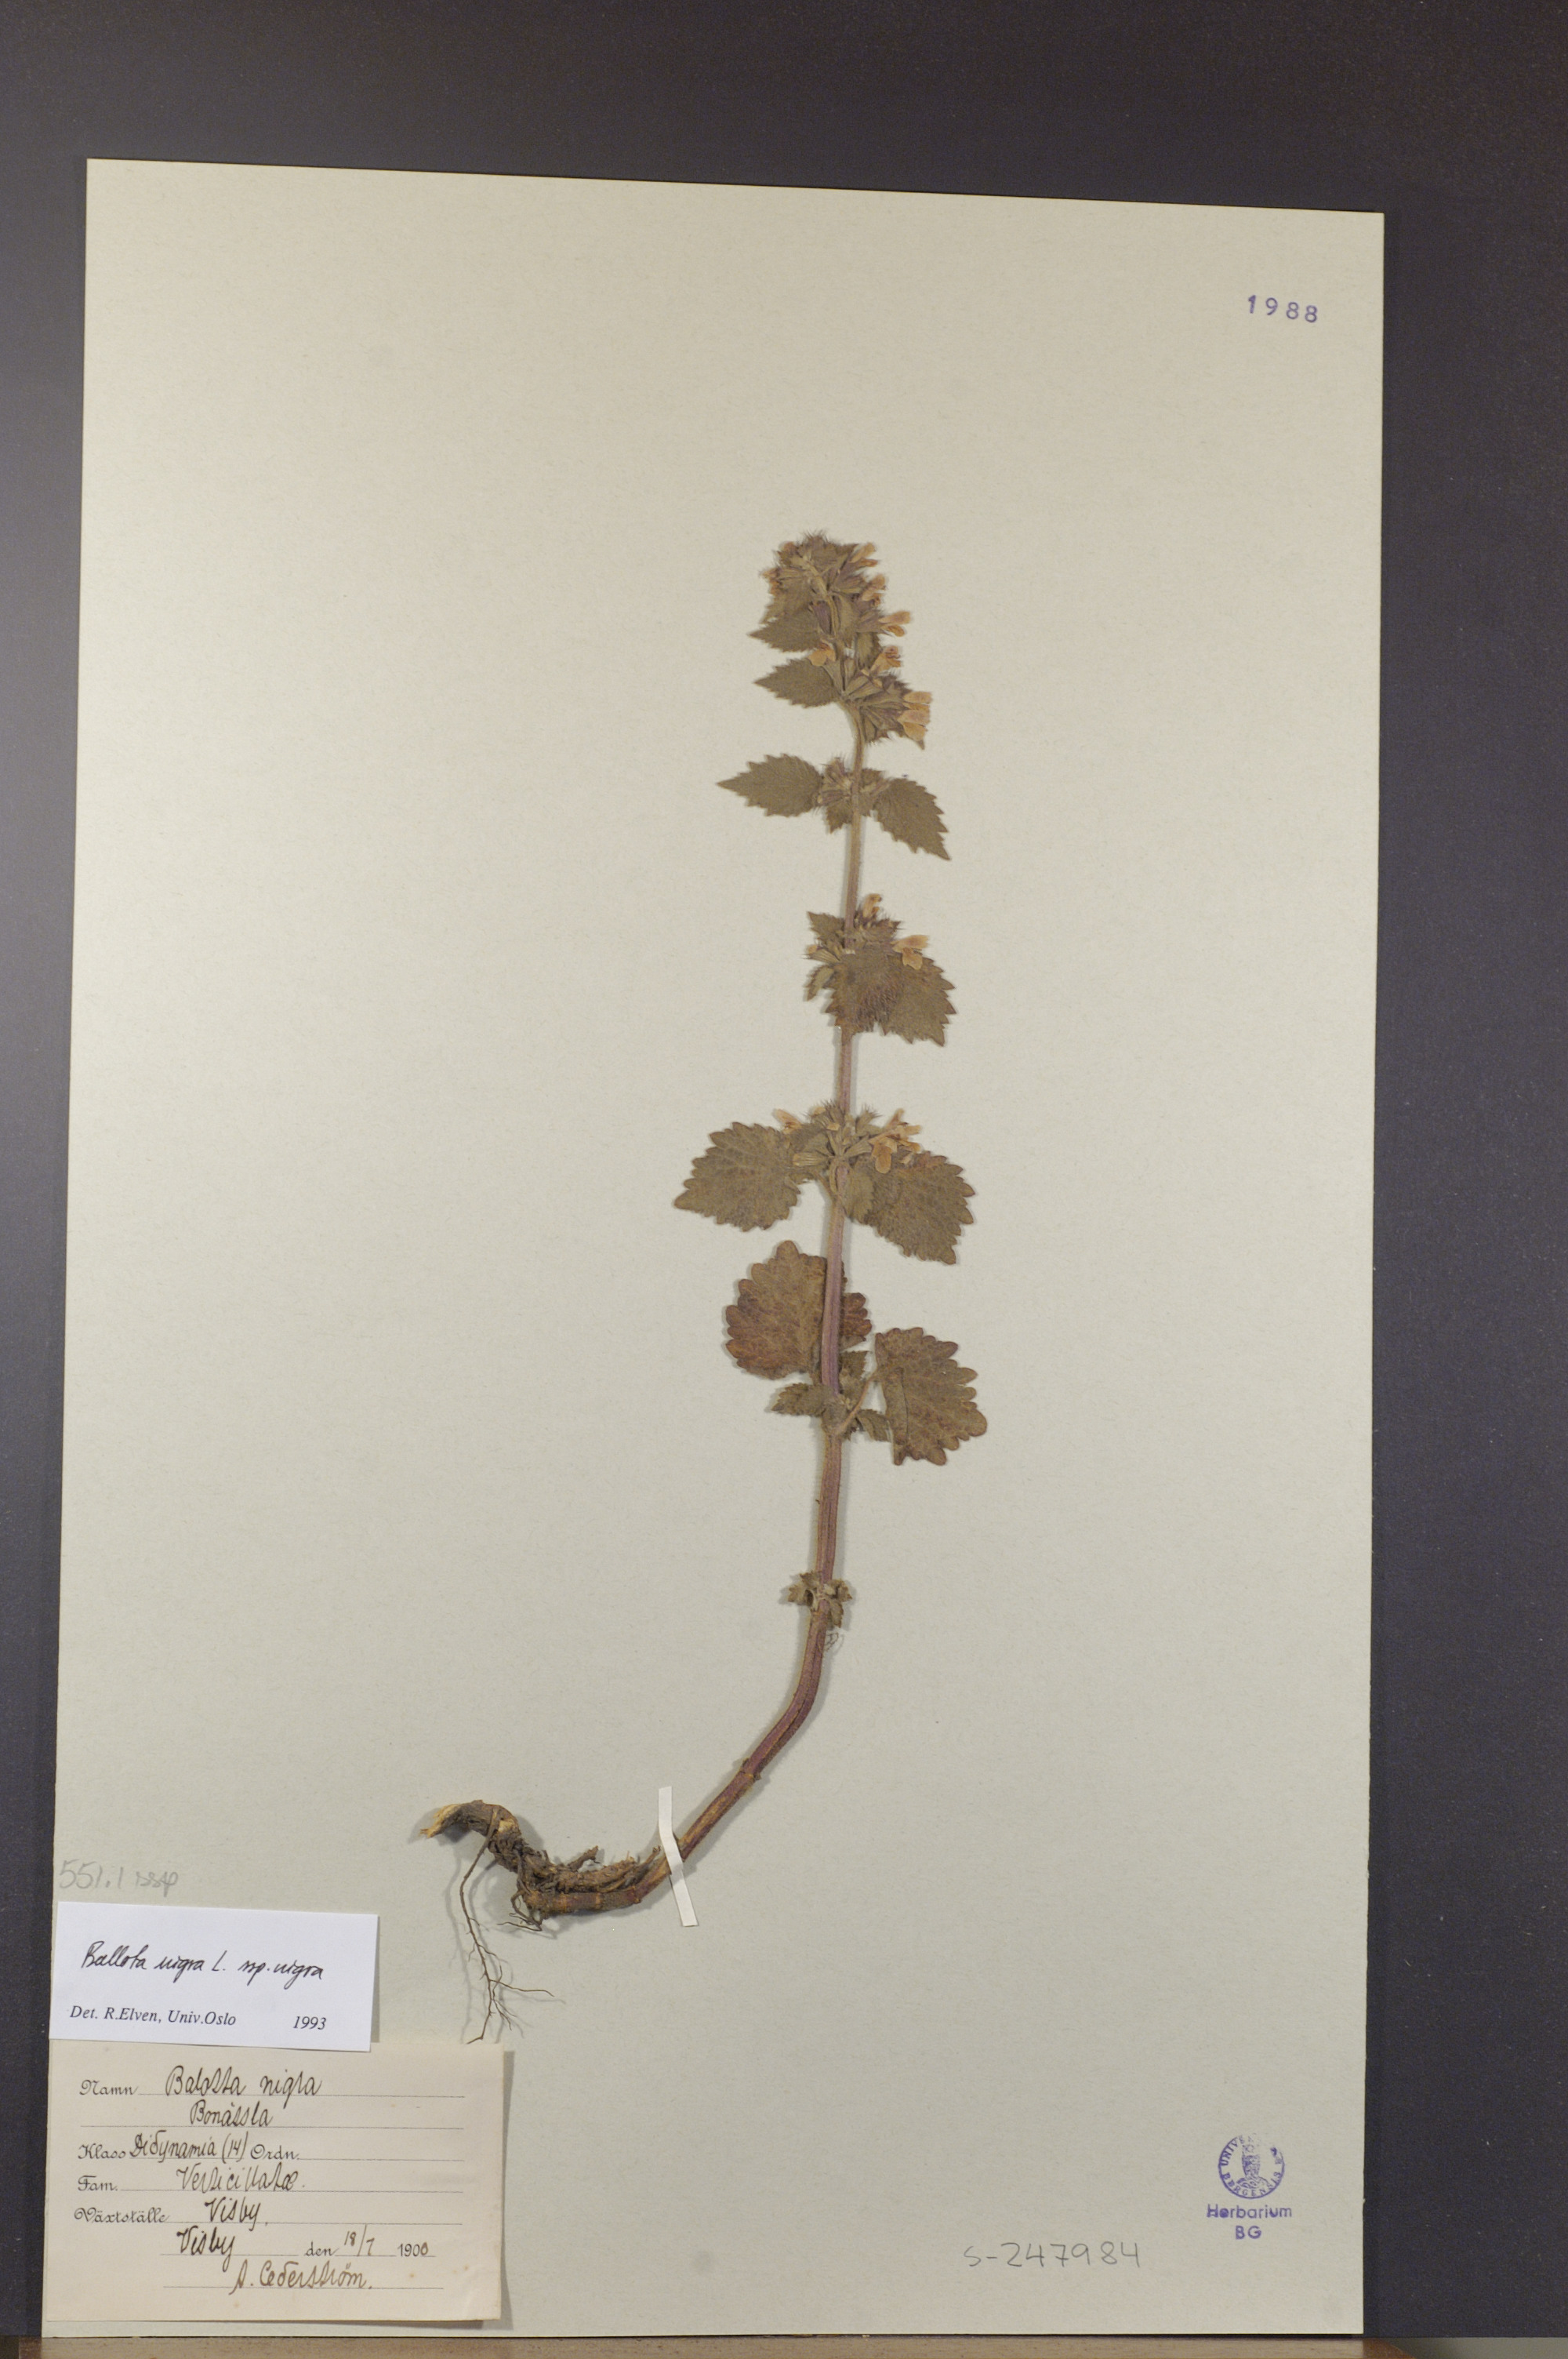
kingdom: Plantae
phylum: Tracheophyta
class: Magnoliopsida
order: Lamiales
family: Lamiaceae
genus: Ballota
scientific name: Ballota nigra
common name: Black horehound
